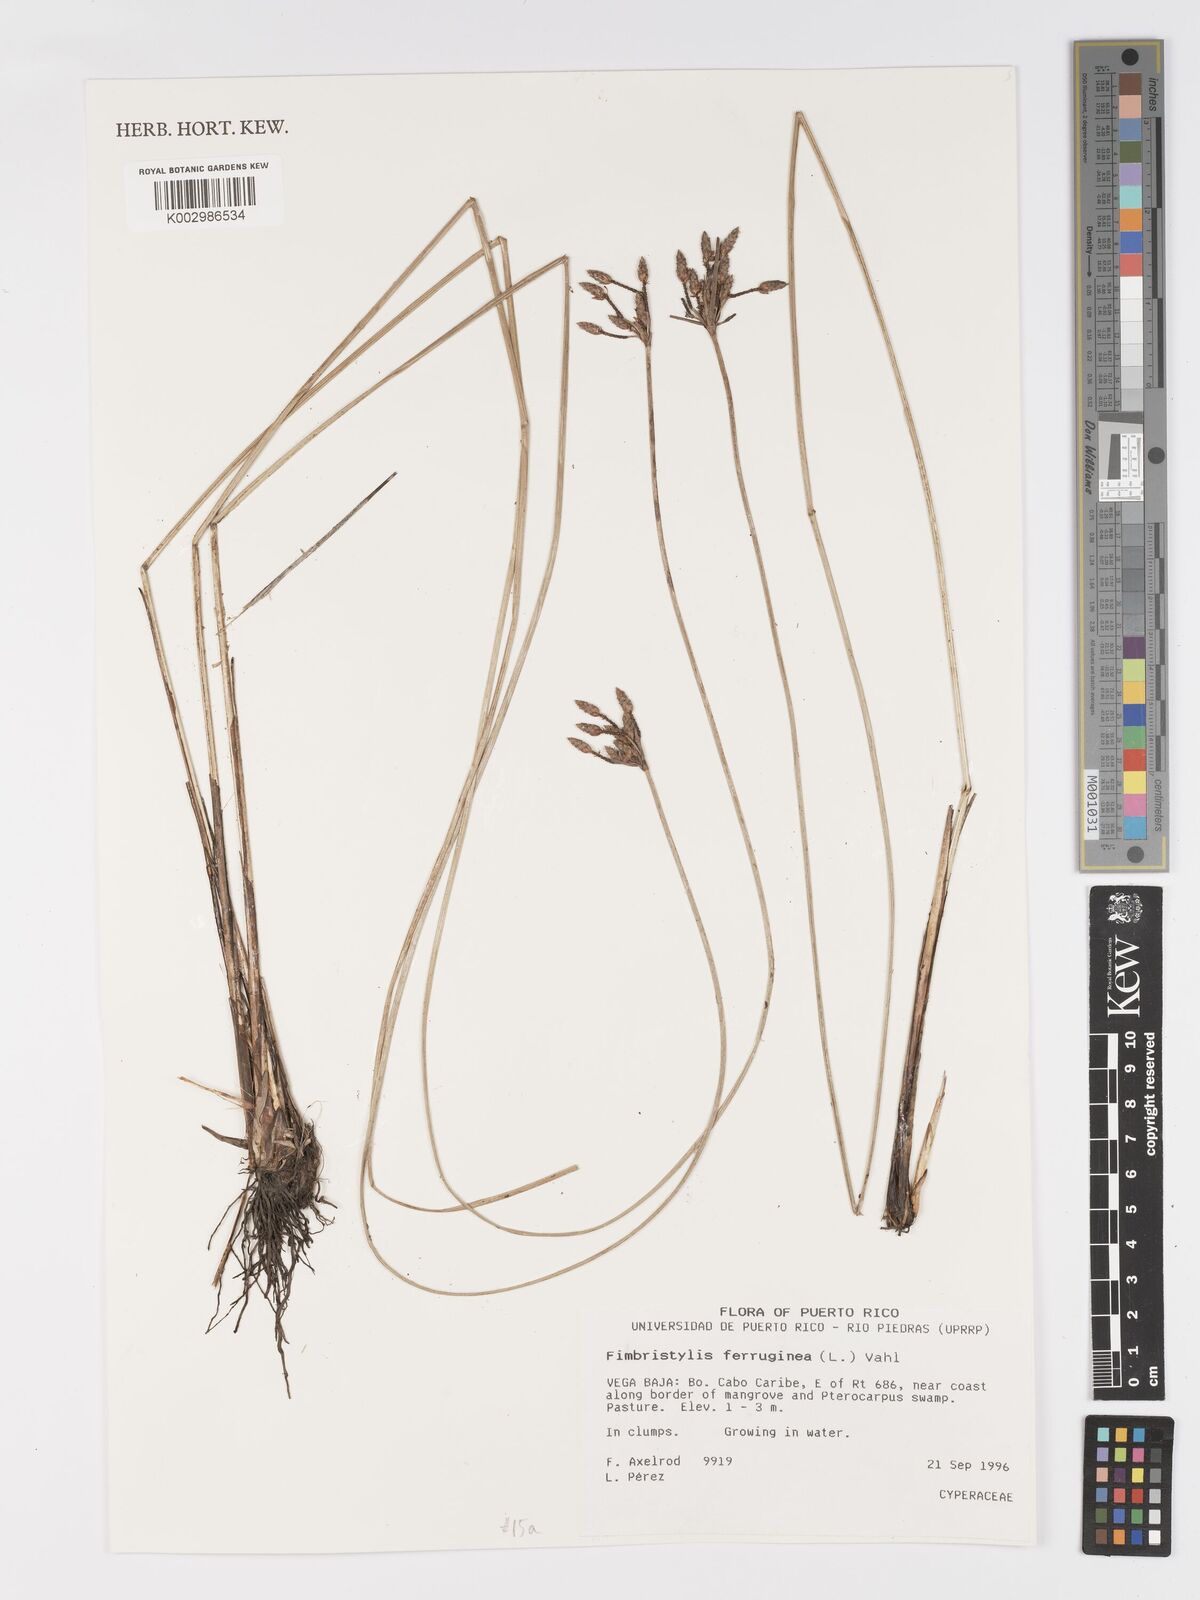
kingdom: Plantae
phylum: Tracheophyta
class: Liliopsida
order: Poales
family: Cyperaceae
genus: Fimbristylis
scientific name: Fimbristylis ferruginea
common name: West indian fimbry
